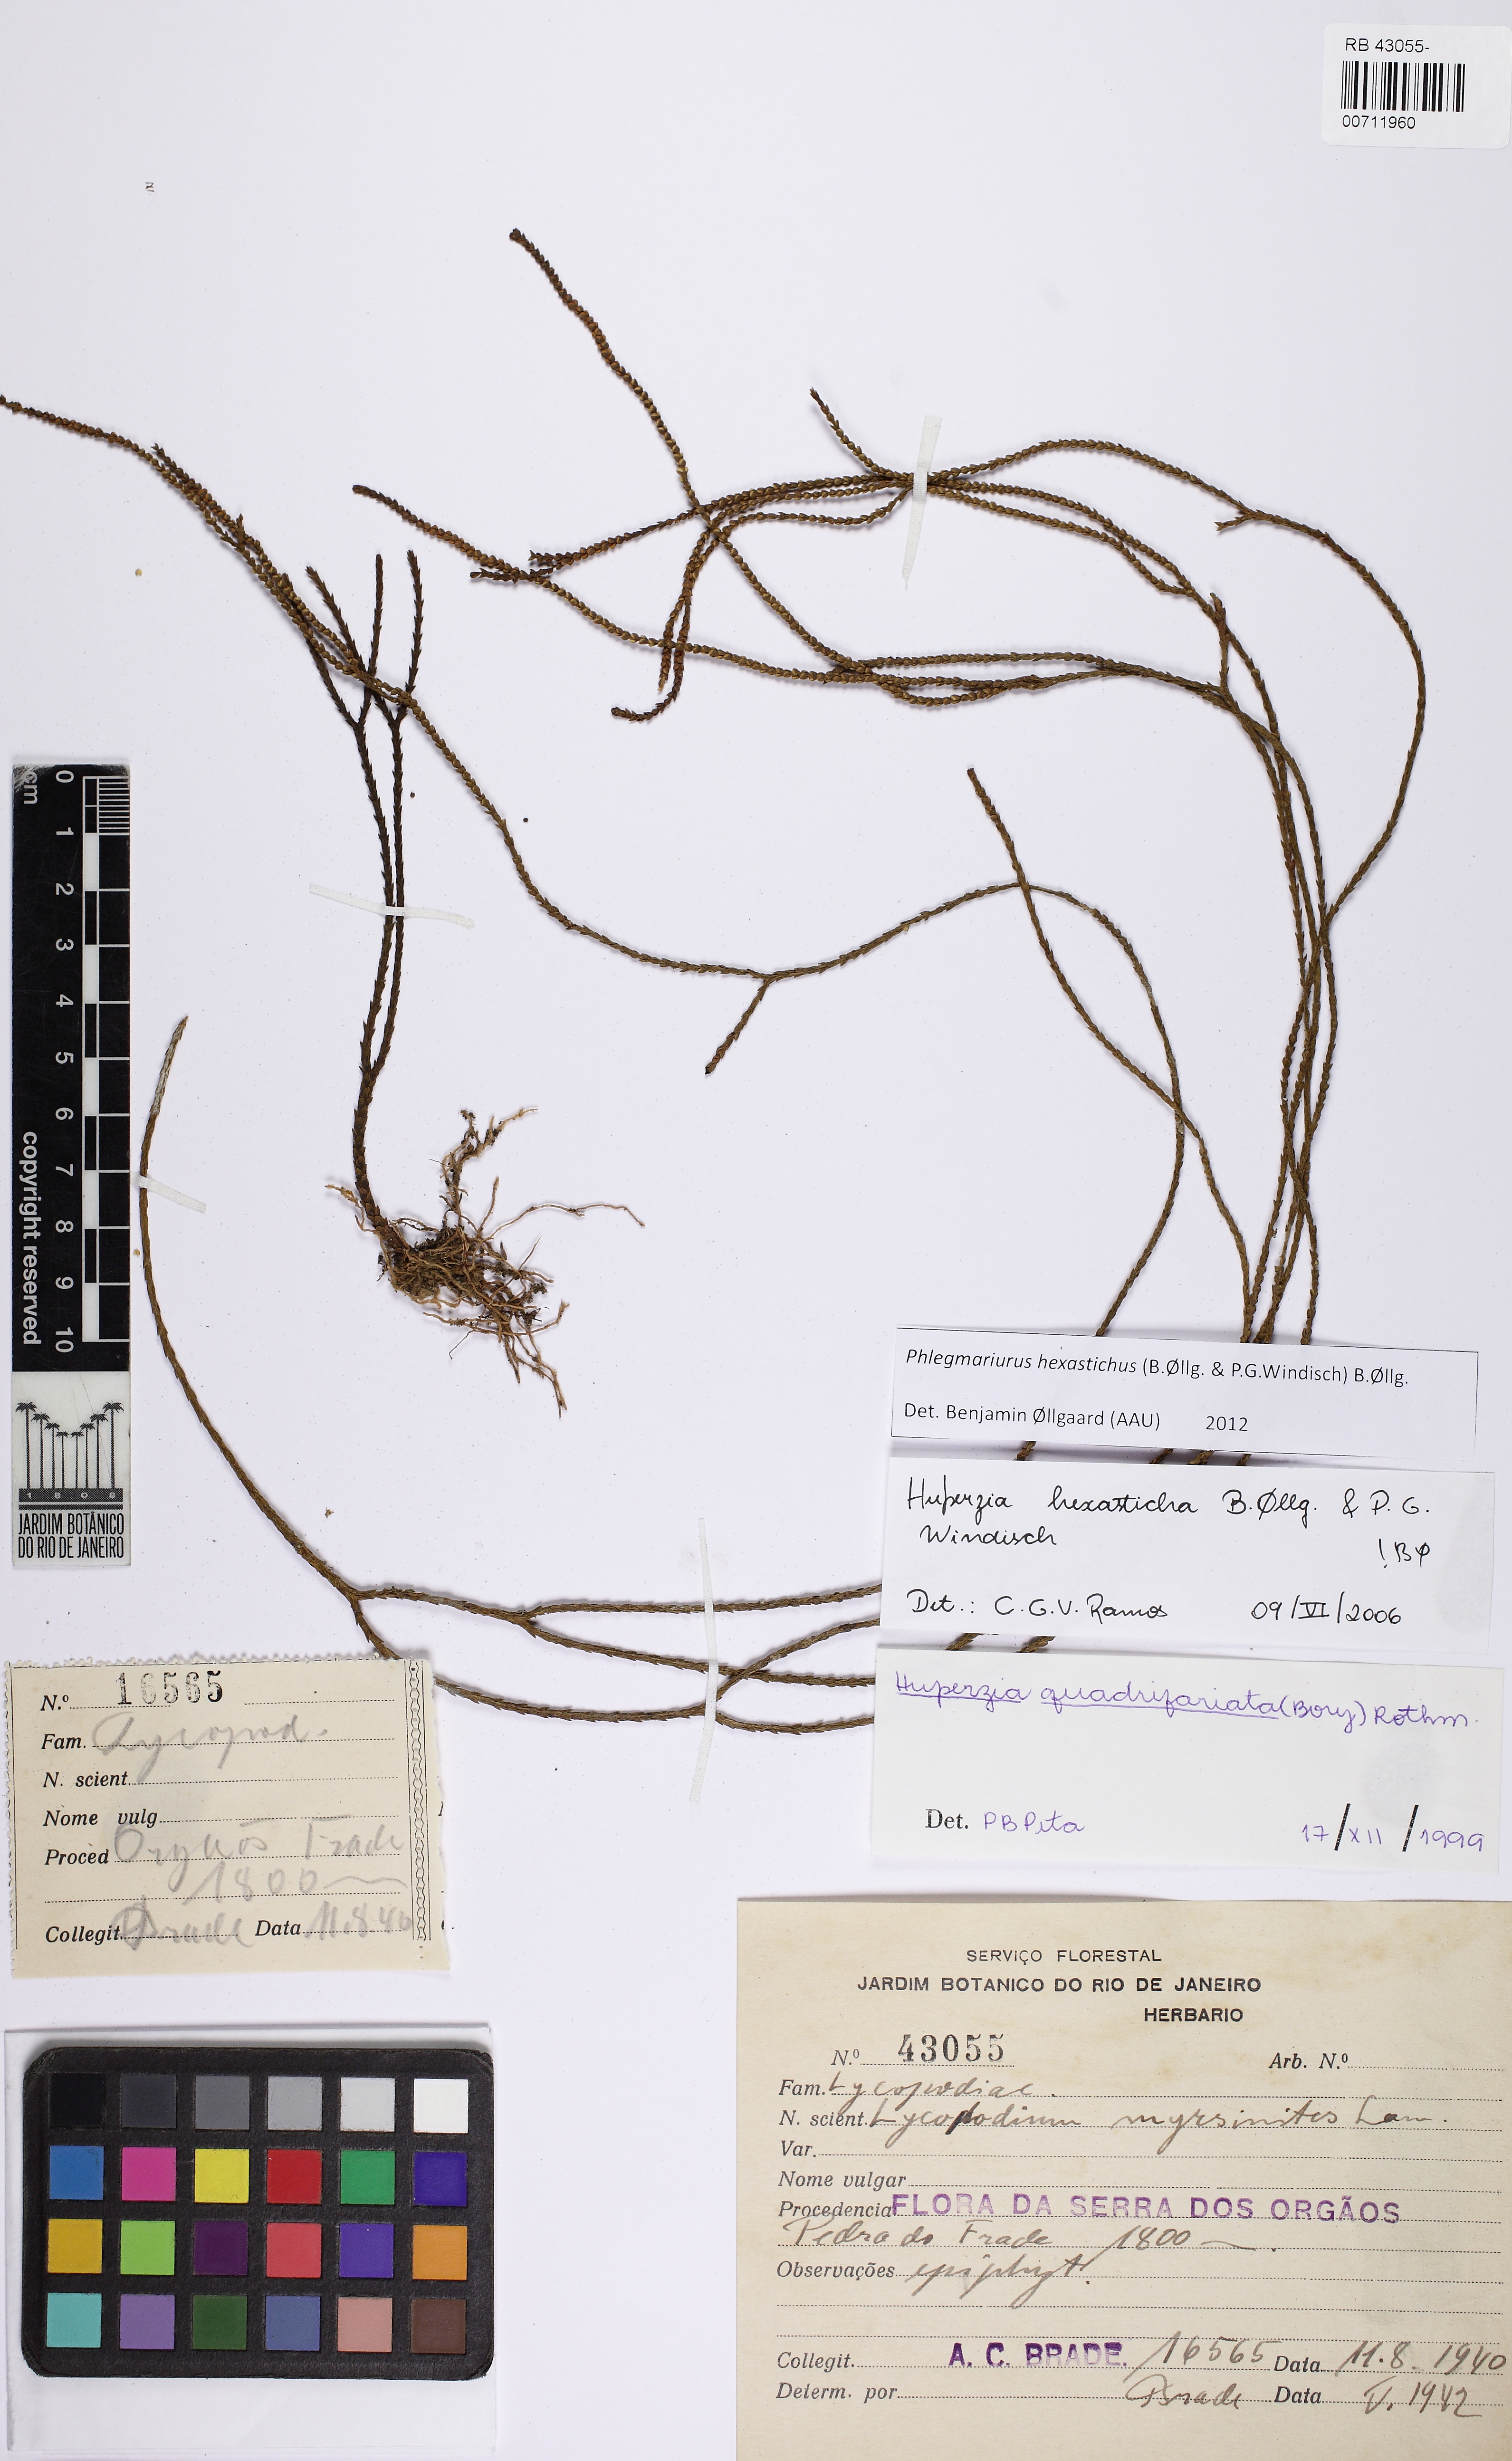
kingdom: Plantae
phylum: Tracheophyta
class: Lycopodiopsida
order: Lycopodiales
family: Lycopodiaceae
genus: Phlegmariurus
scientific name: Phlegmariurus hexastichus
